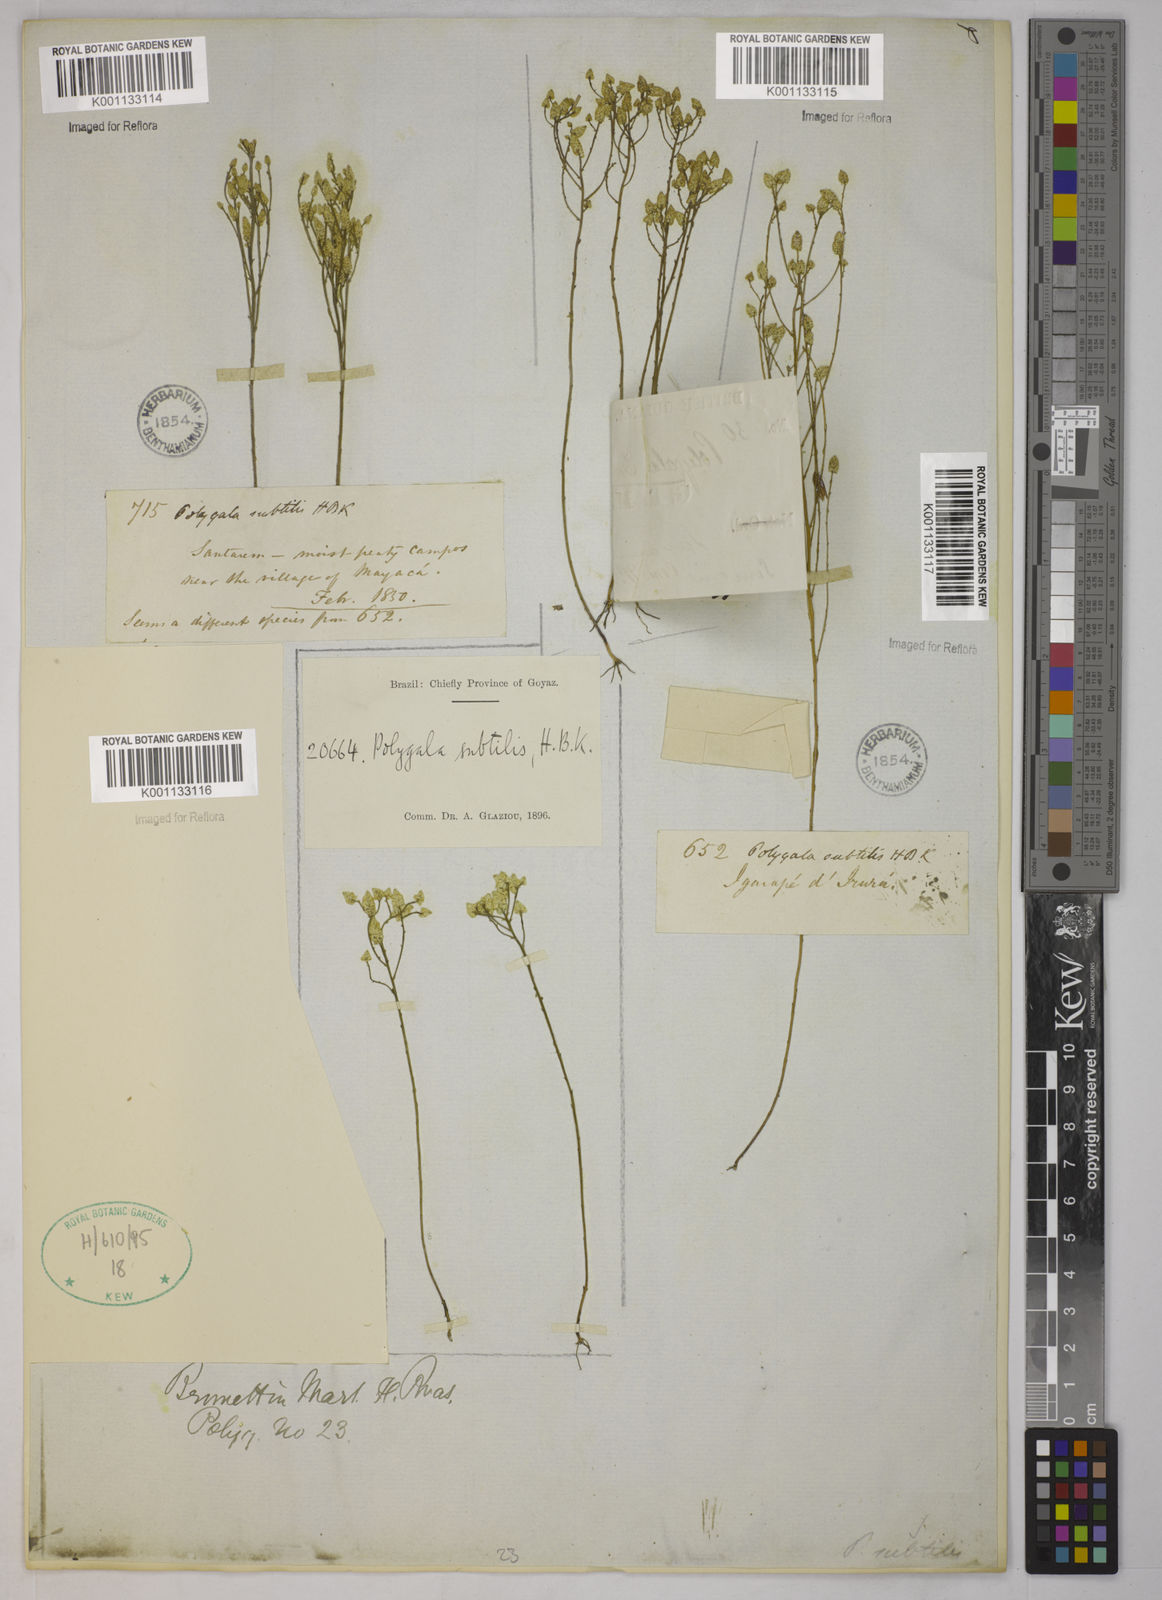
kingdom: Plantae
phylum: Tracheophyta
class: Magnoliopsida
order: Fabales
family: Polygalaceae
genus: Polygala
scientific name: Polygala subtilis
